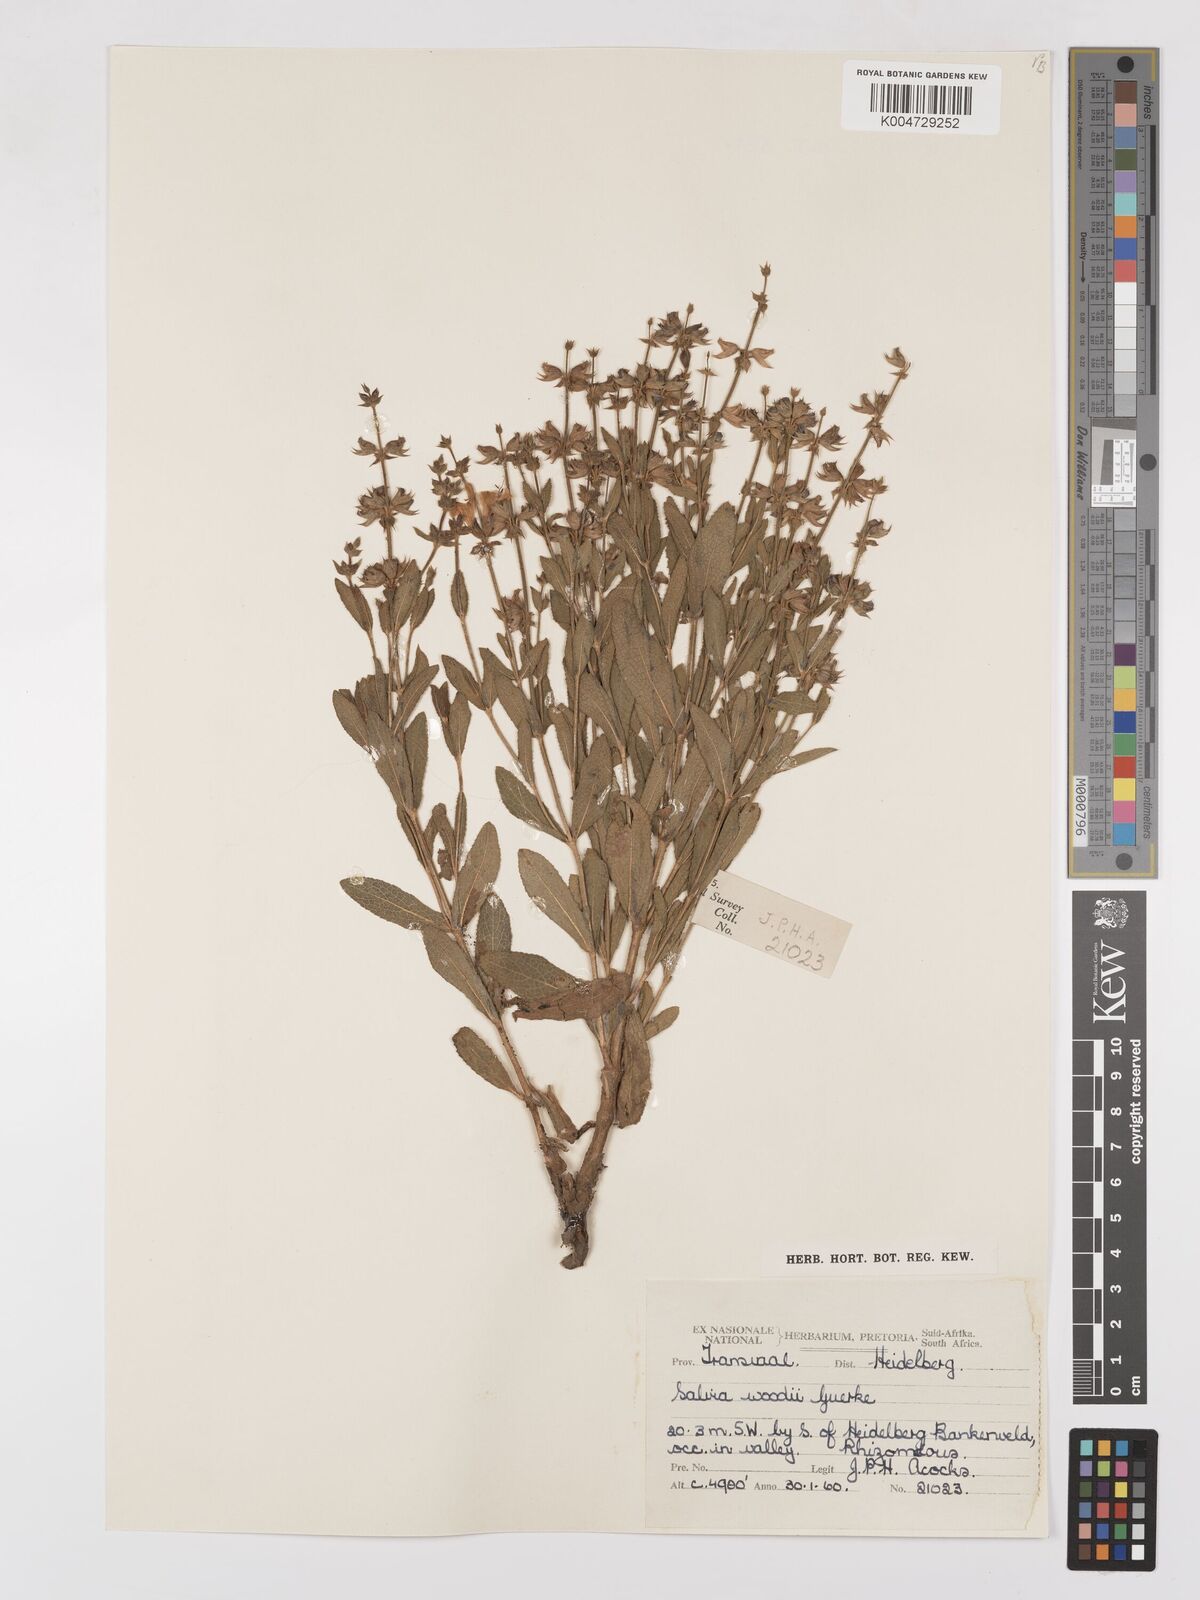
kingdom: Plantae
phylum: Tracheophyta
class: Magnoliopsida
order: Lamiales
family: Lamiaceae
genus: Salvia
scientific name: Salvia repens
